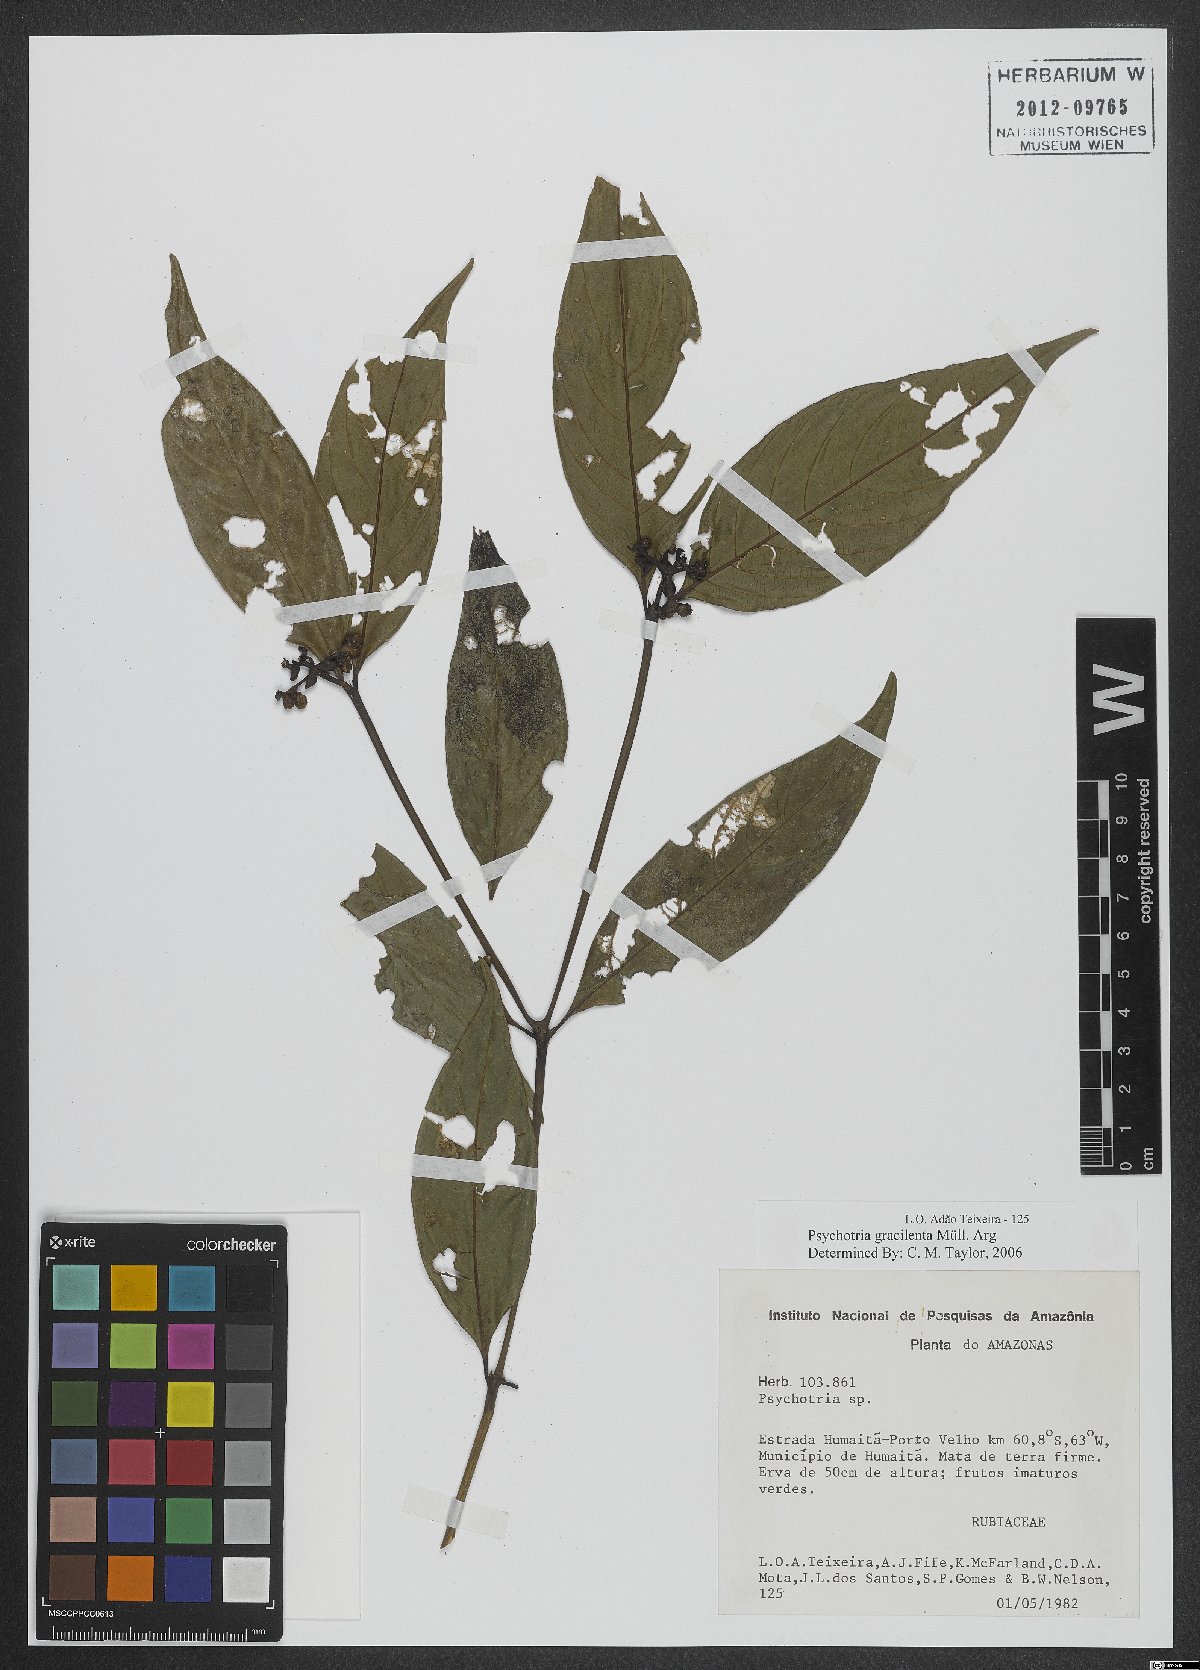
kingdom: Plantae
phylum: Tracheophyta
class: Magnoliopsida
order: Gentianales
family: Rubiaceae
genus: Palicourea
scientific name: Palicourea dichotoma
